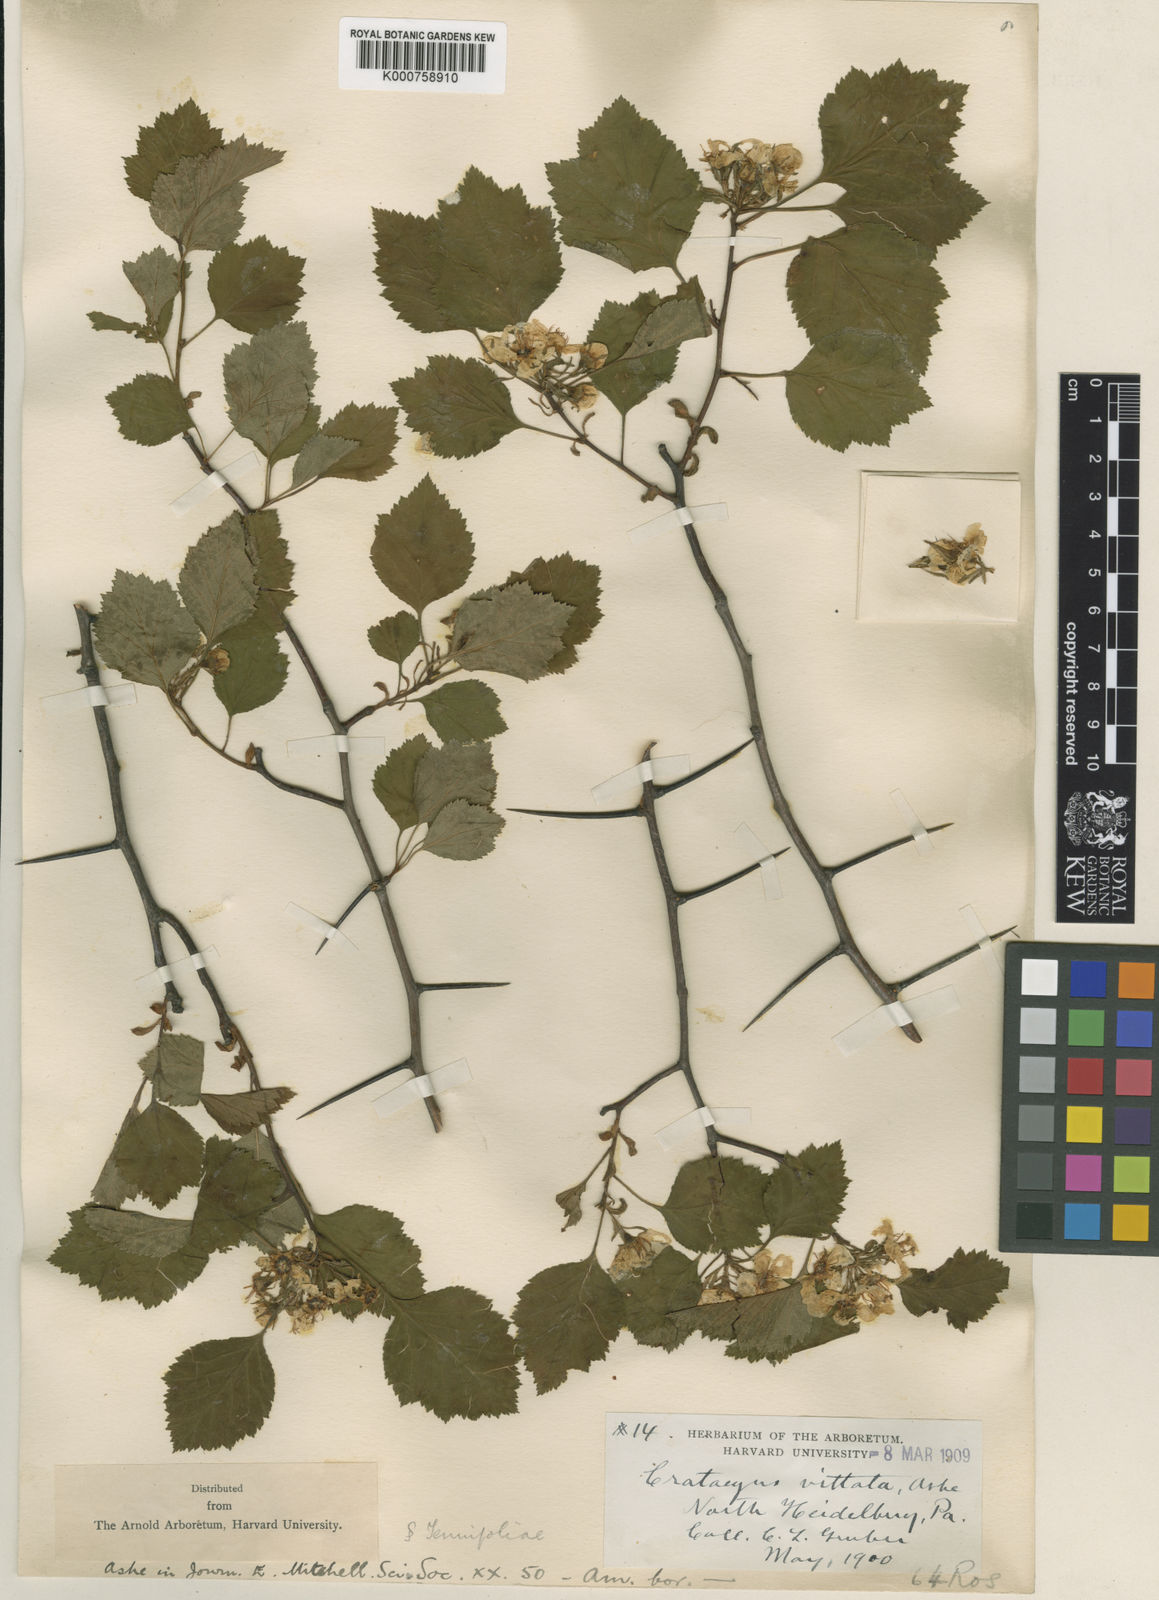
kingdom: Plantae
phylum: Tracheophyta
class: Magnoliopsida
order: Rosales
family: Rosaceae
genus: Crataegus
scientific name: Crataegus fluviatilis
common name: Fort sheridan hawthorn
